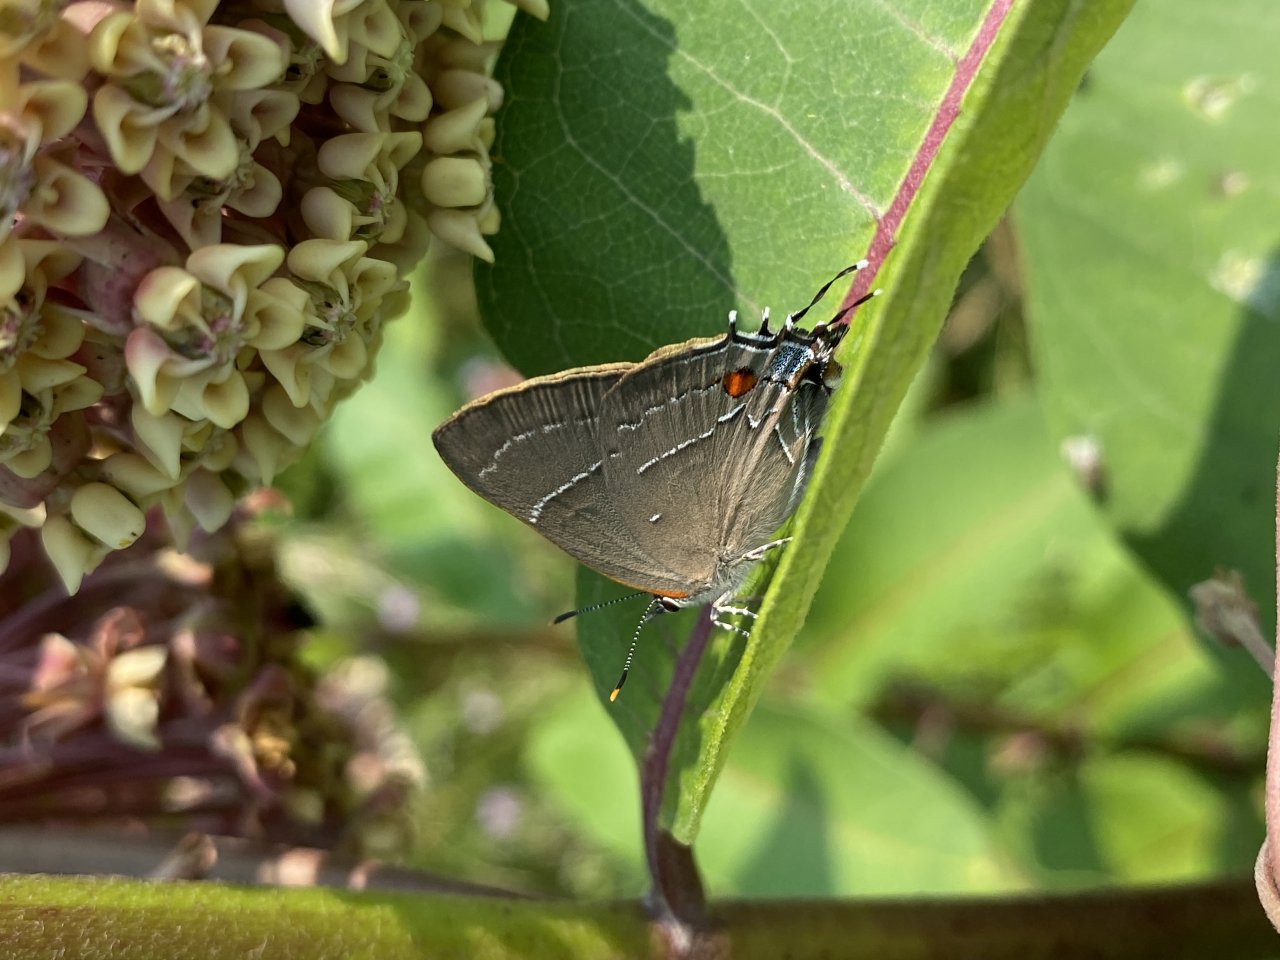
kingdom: Animalia
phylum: Arthropoda
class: Insecta
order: Lepidoptera
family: Lycaenidae
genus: Parrhasius
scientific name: Parrhasius m-album
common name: White-m Hairstreak
